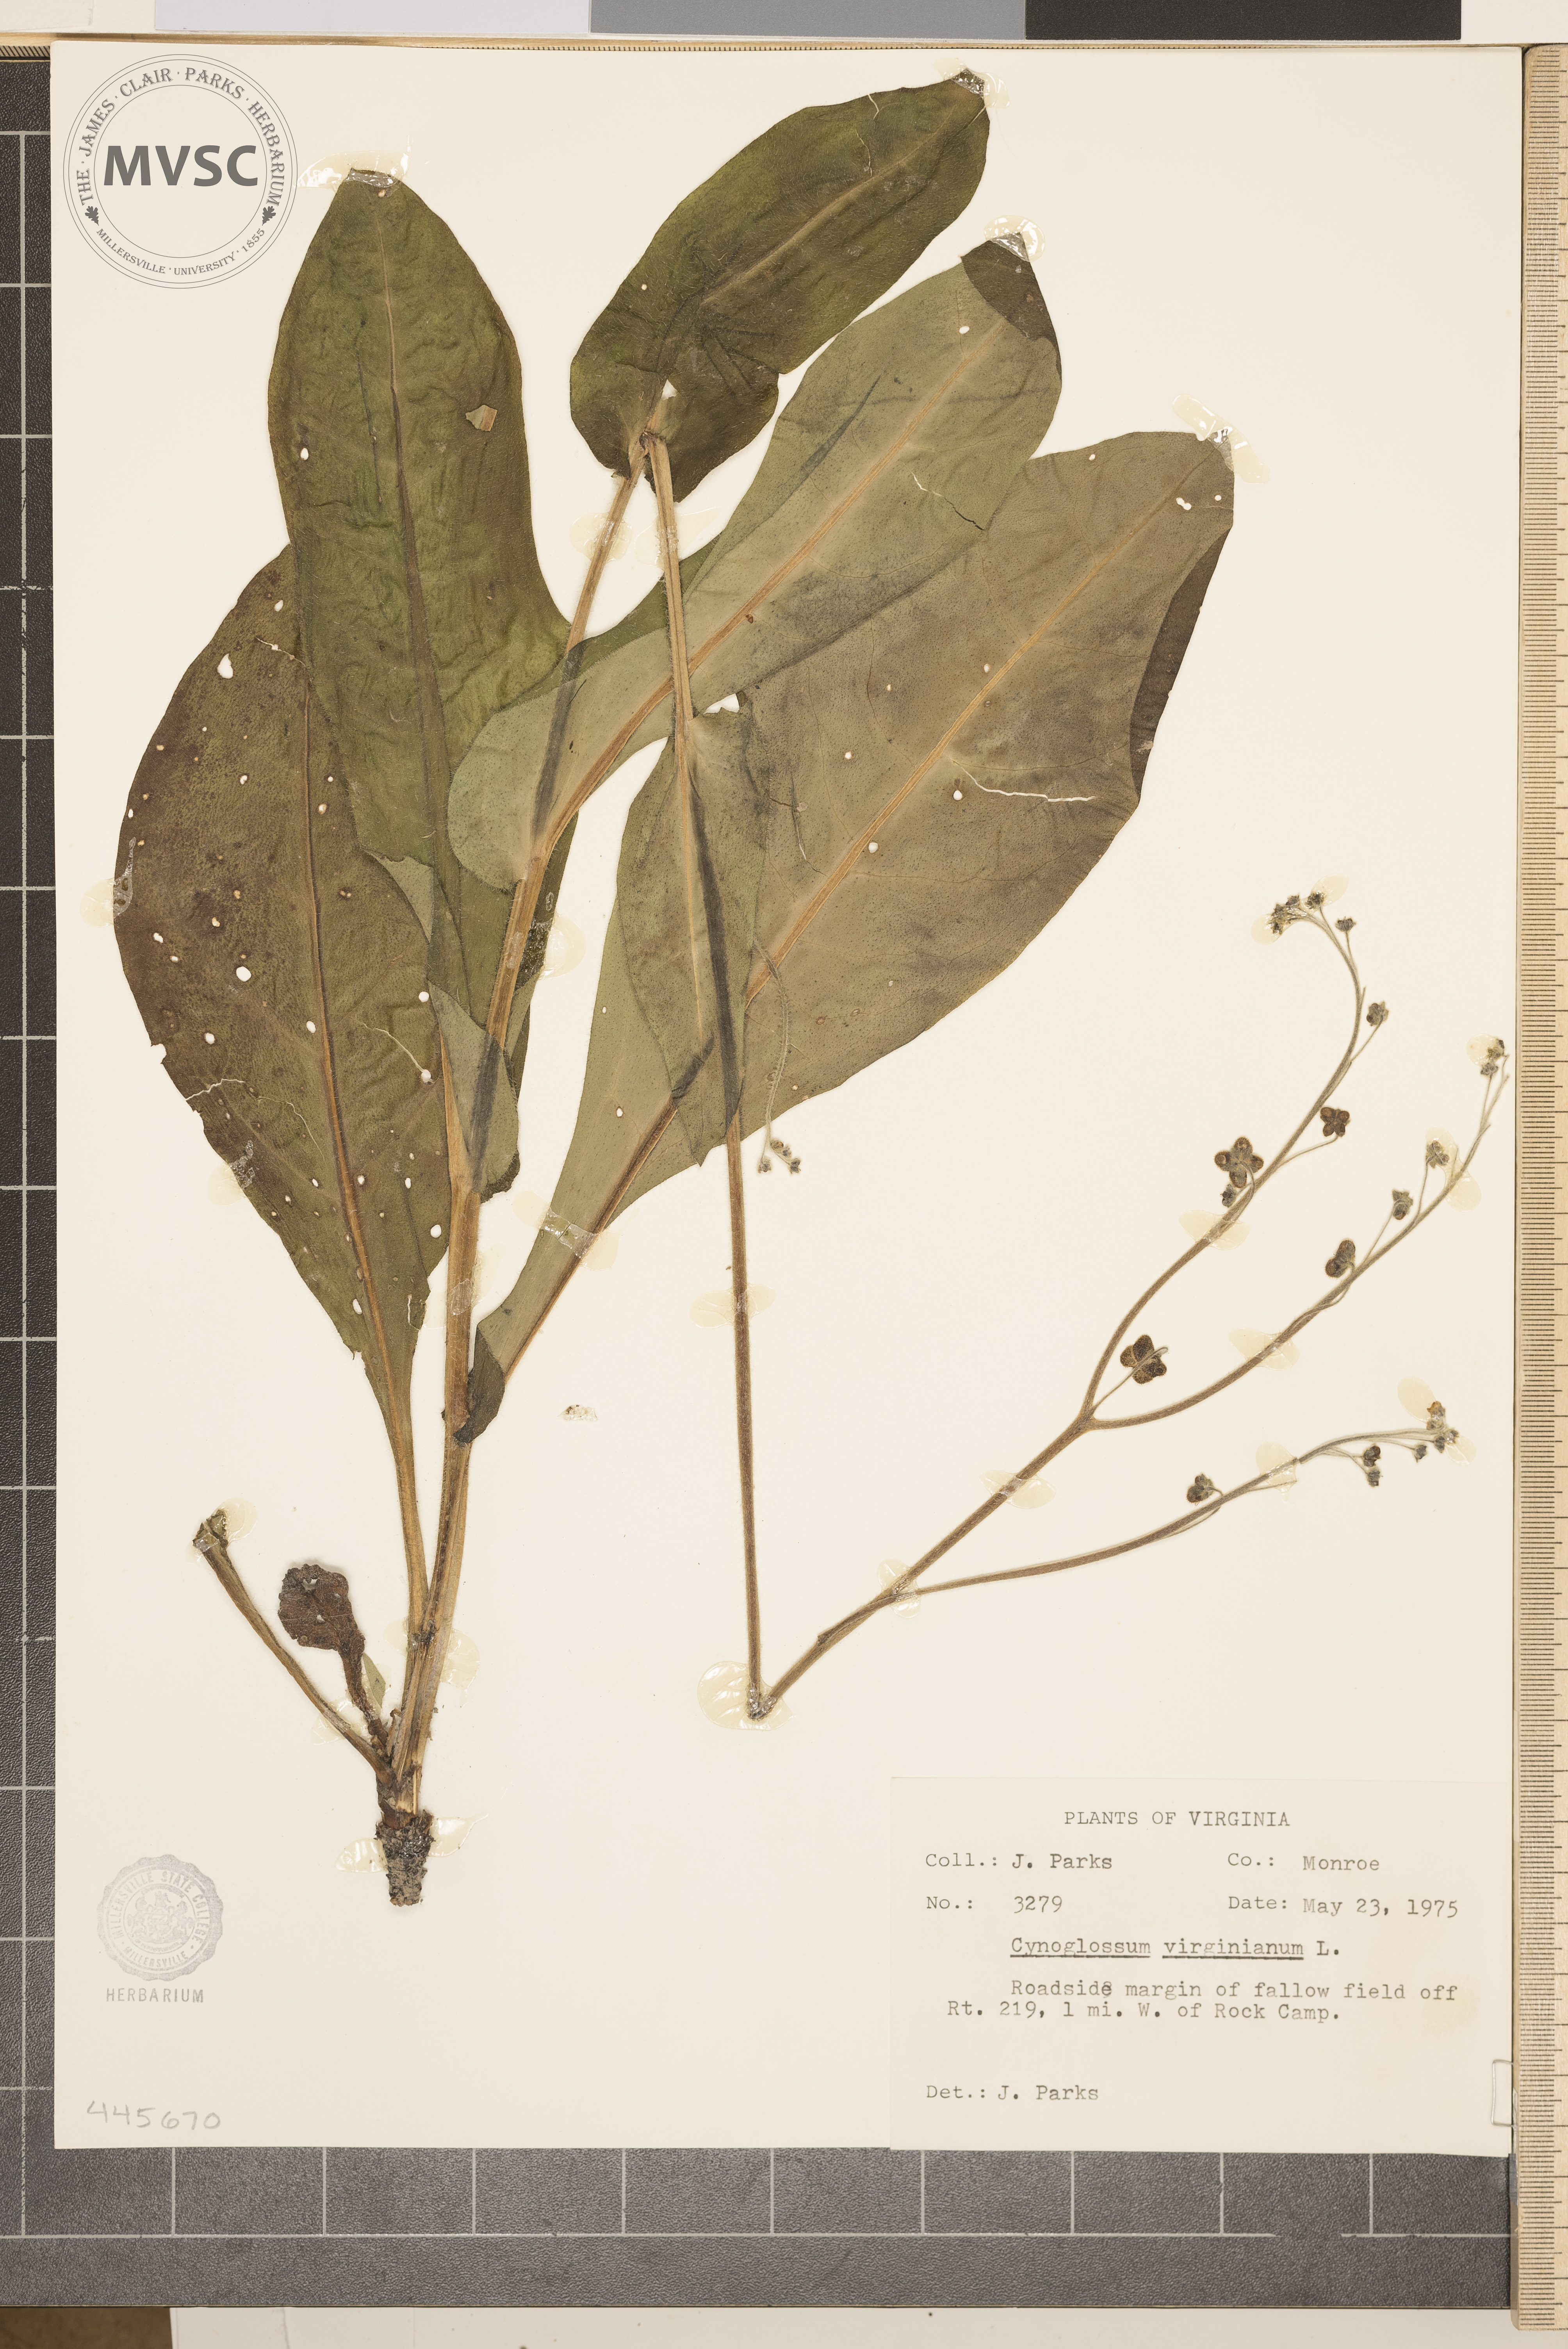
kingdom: Plantae
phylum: Tracheophyta
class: Magnoliopsida
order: Boraginales
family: Boraginaceae
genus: Andersonglossum
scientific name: Andersonglossum virginianum
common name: Wild comfrey
